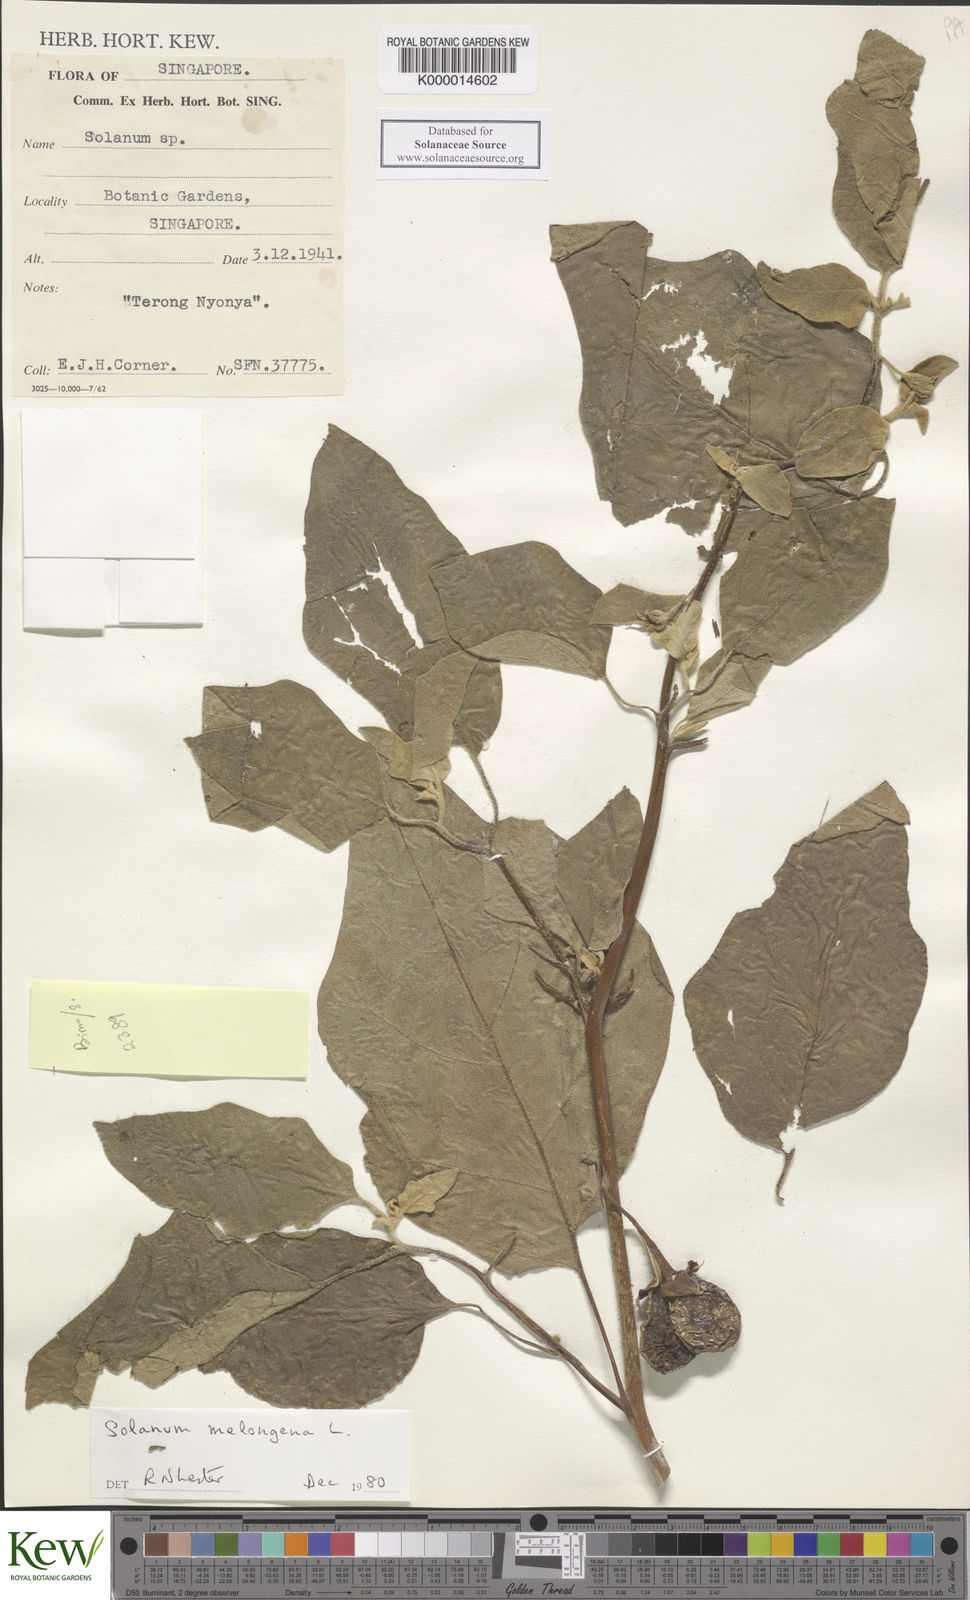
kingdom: Plantae
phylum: Tracheophyta
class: Magnoliopsida
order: Solanales
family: Solanaceae
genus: Solanum
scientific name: Solanum insanum
